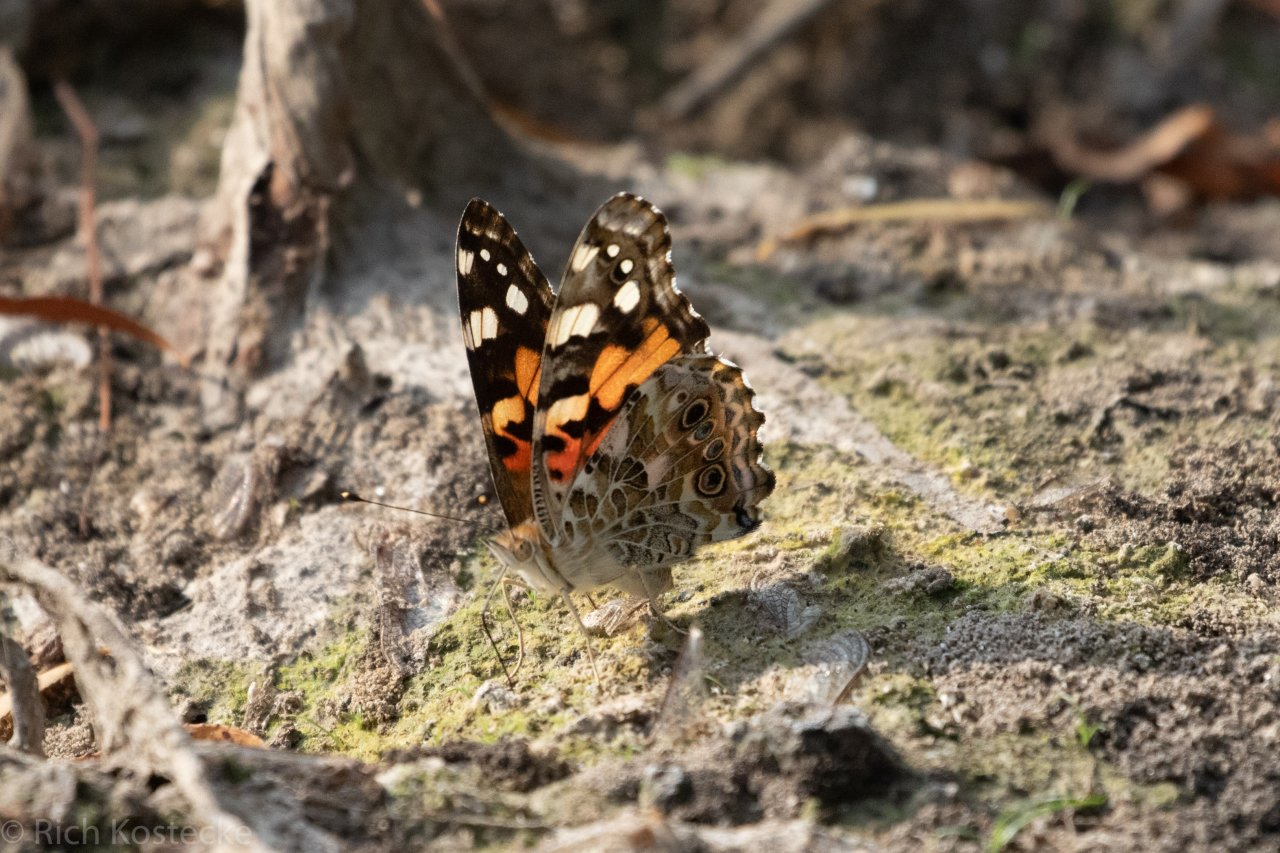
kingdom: Animalia
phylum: Arthropoda
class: Insecta
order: Lepidoptera
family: Nymphalidae
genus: Vanessa
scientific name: Vanessa cardui
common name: Painted Lady
